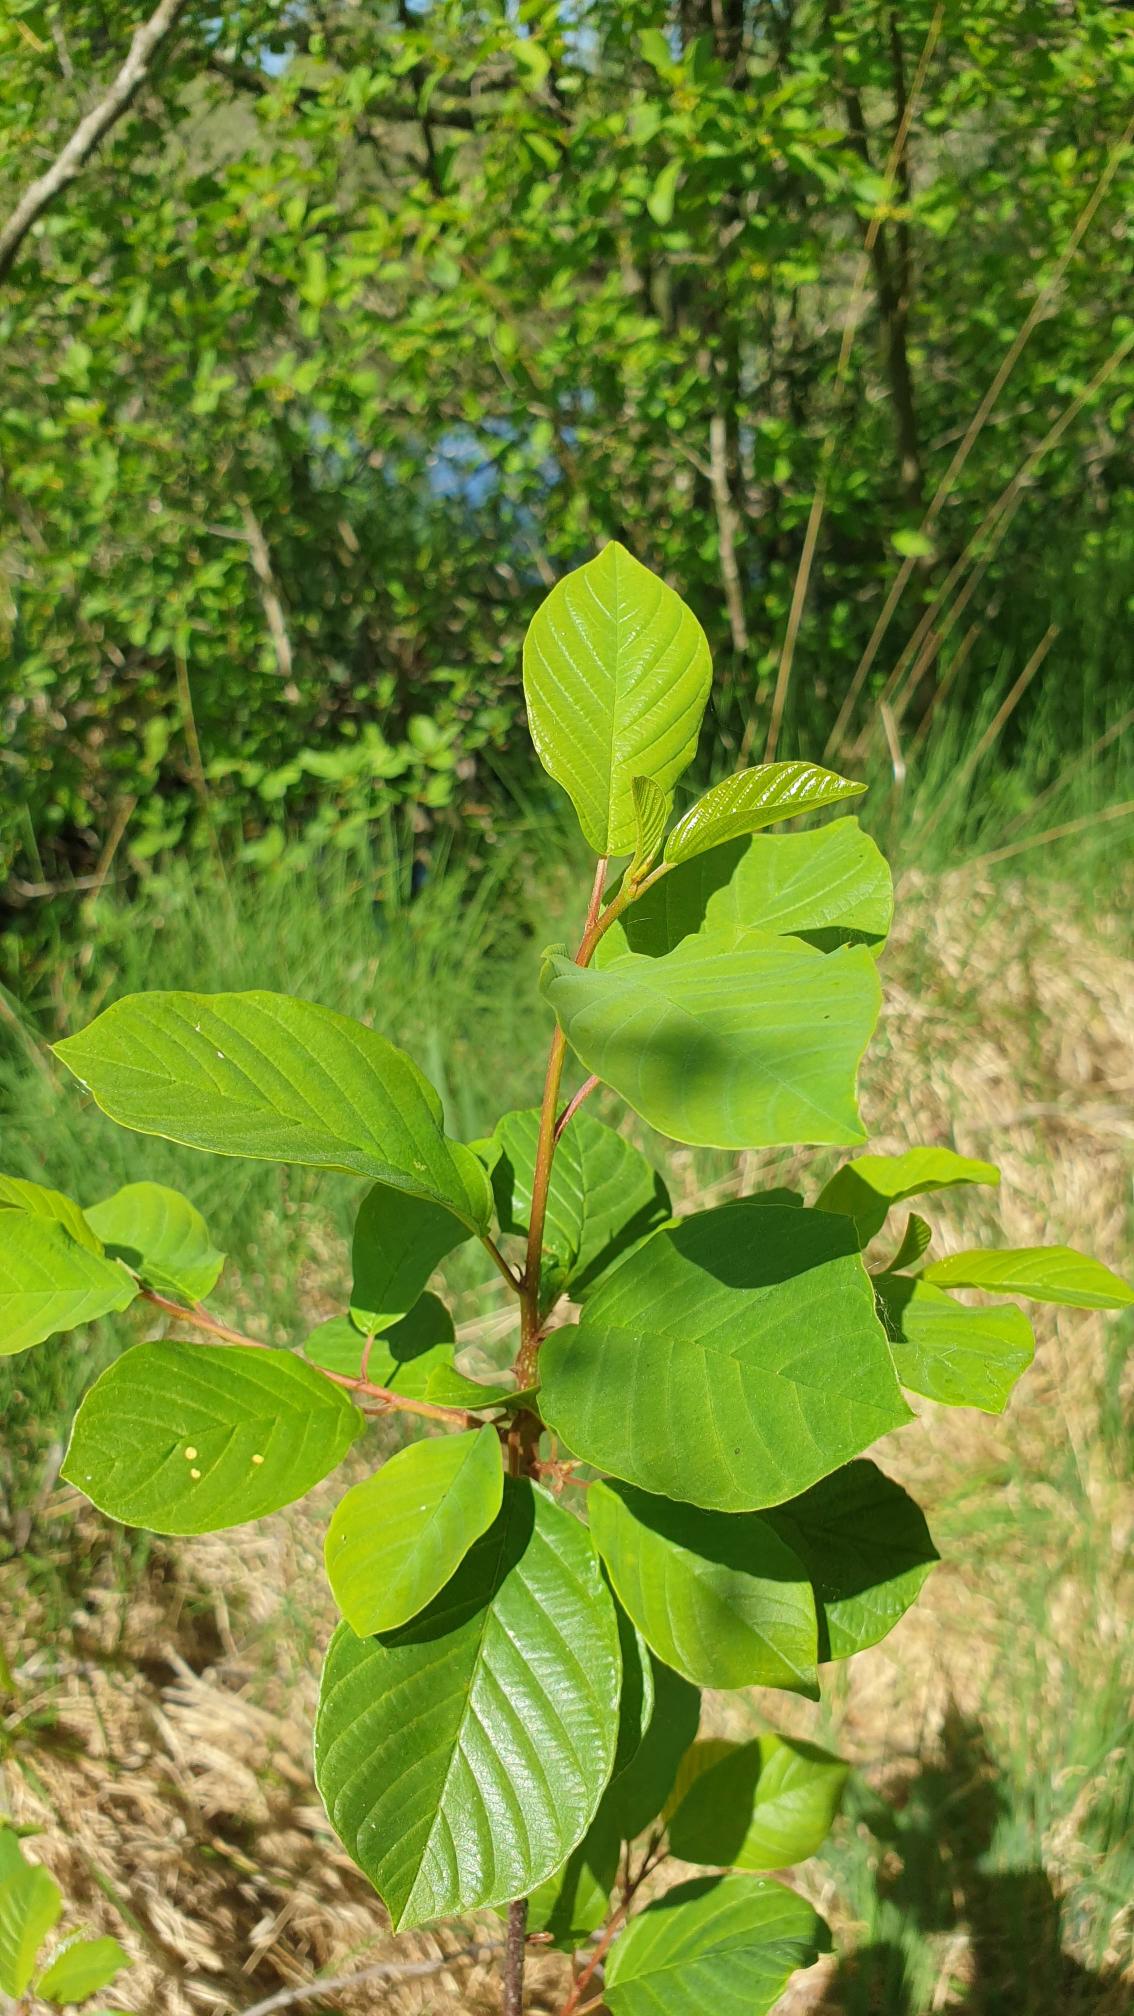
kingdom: Plantae
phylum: Tracheophyta
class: Magnoliopsida
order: Rosales
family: Rhamnaceae
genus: Frangula
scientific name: Frangula alnus
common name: Tørst
